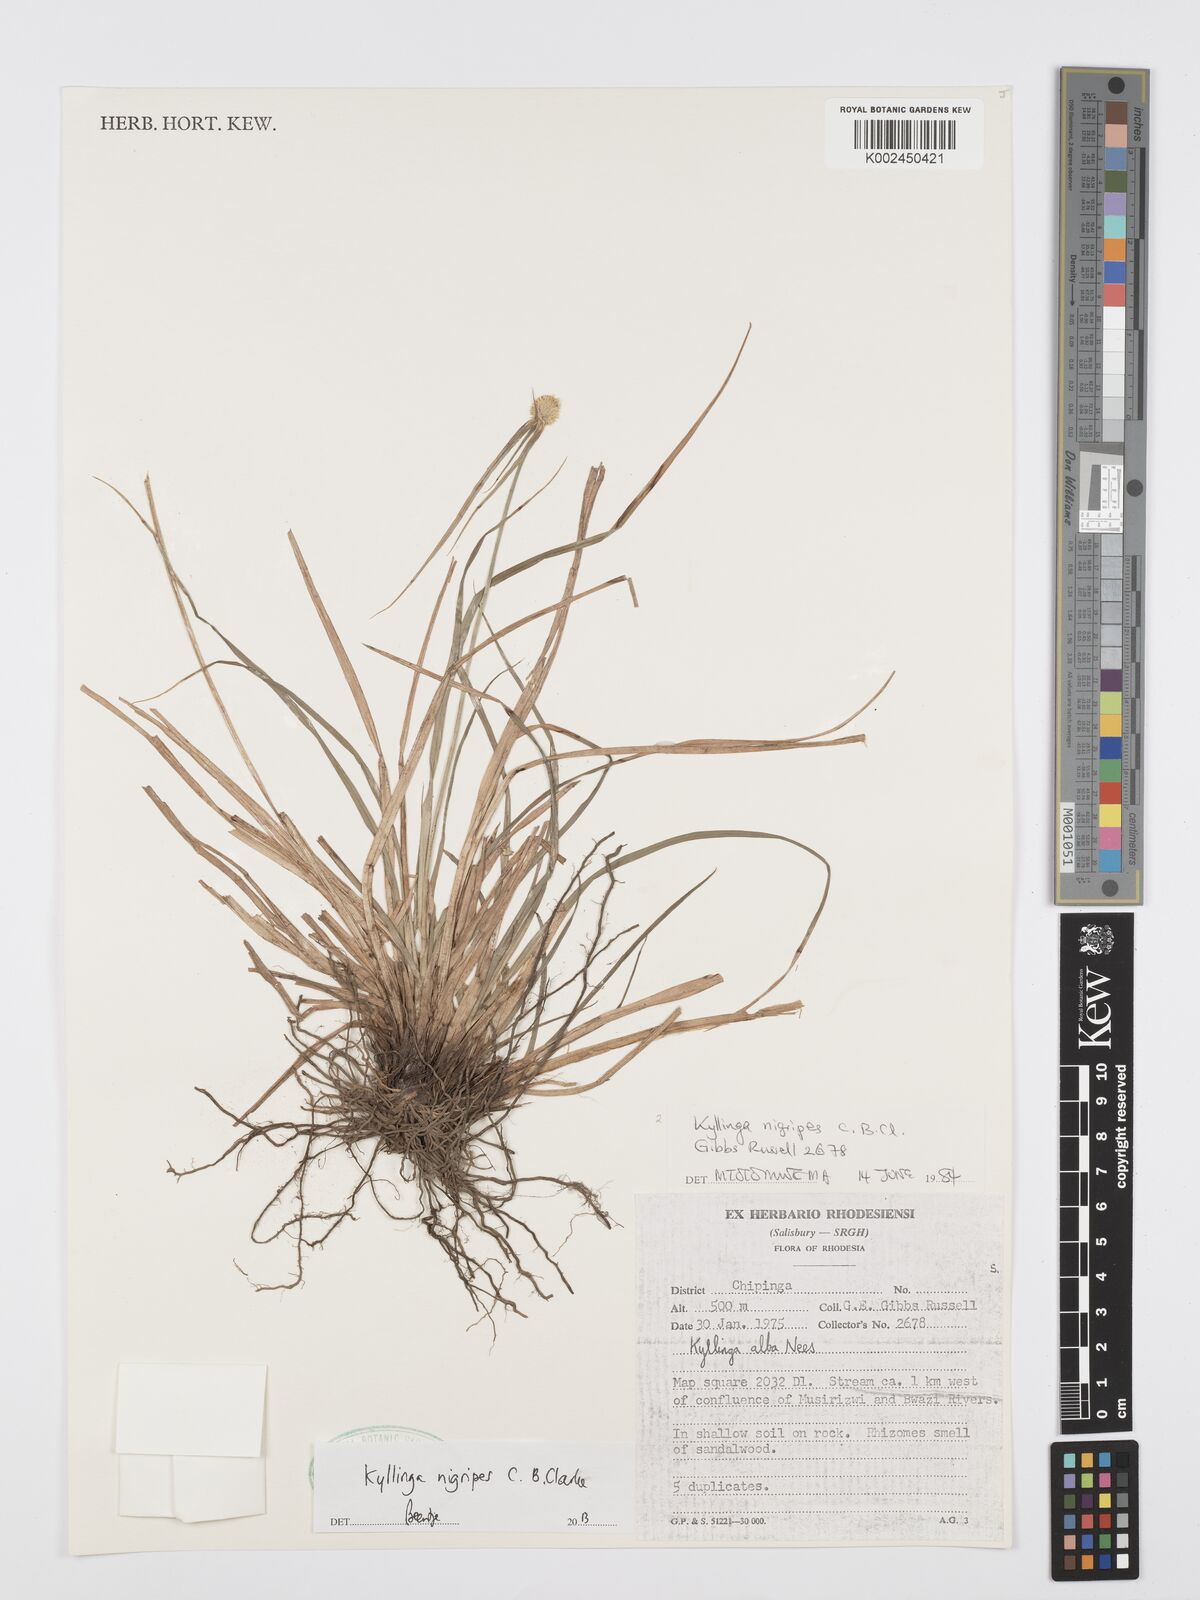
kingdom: Plantae
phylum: Tracheophyta
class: Liliopsida
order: Poales
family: Cyperaceae
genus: Cyperus
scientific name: Cyperus nigripes
